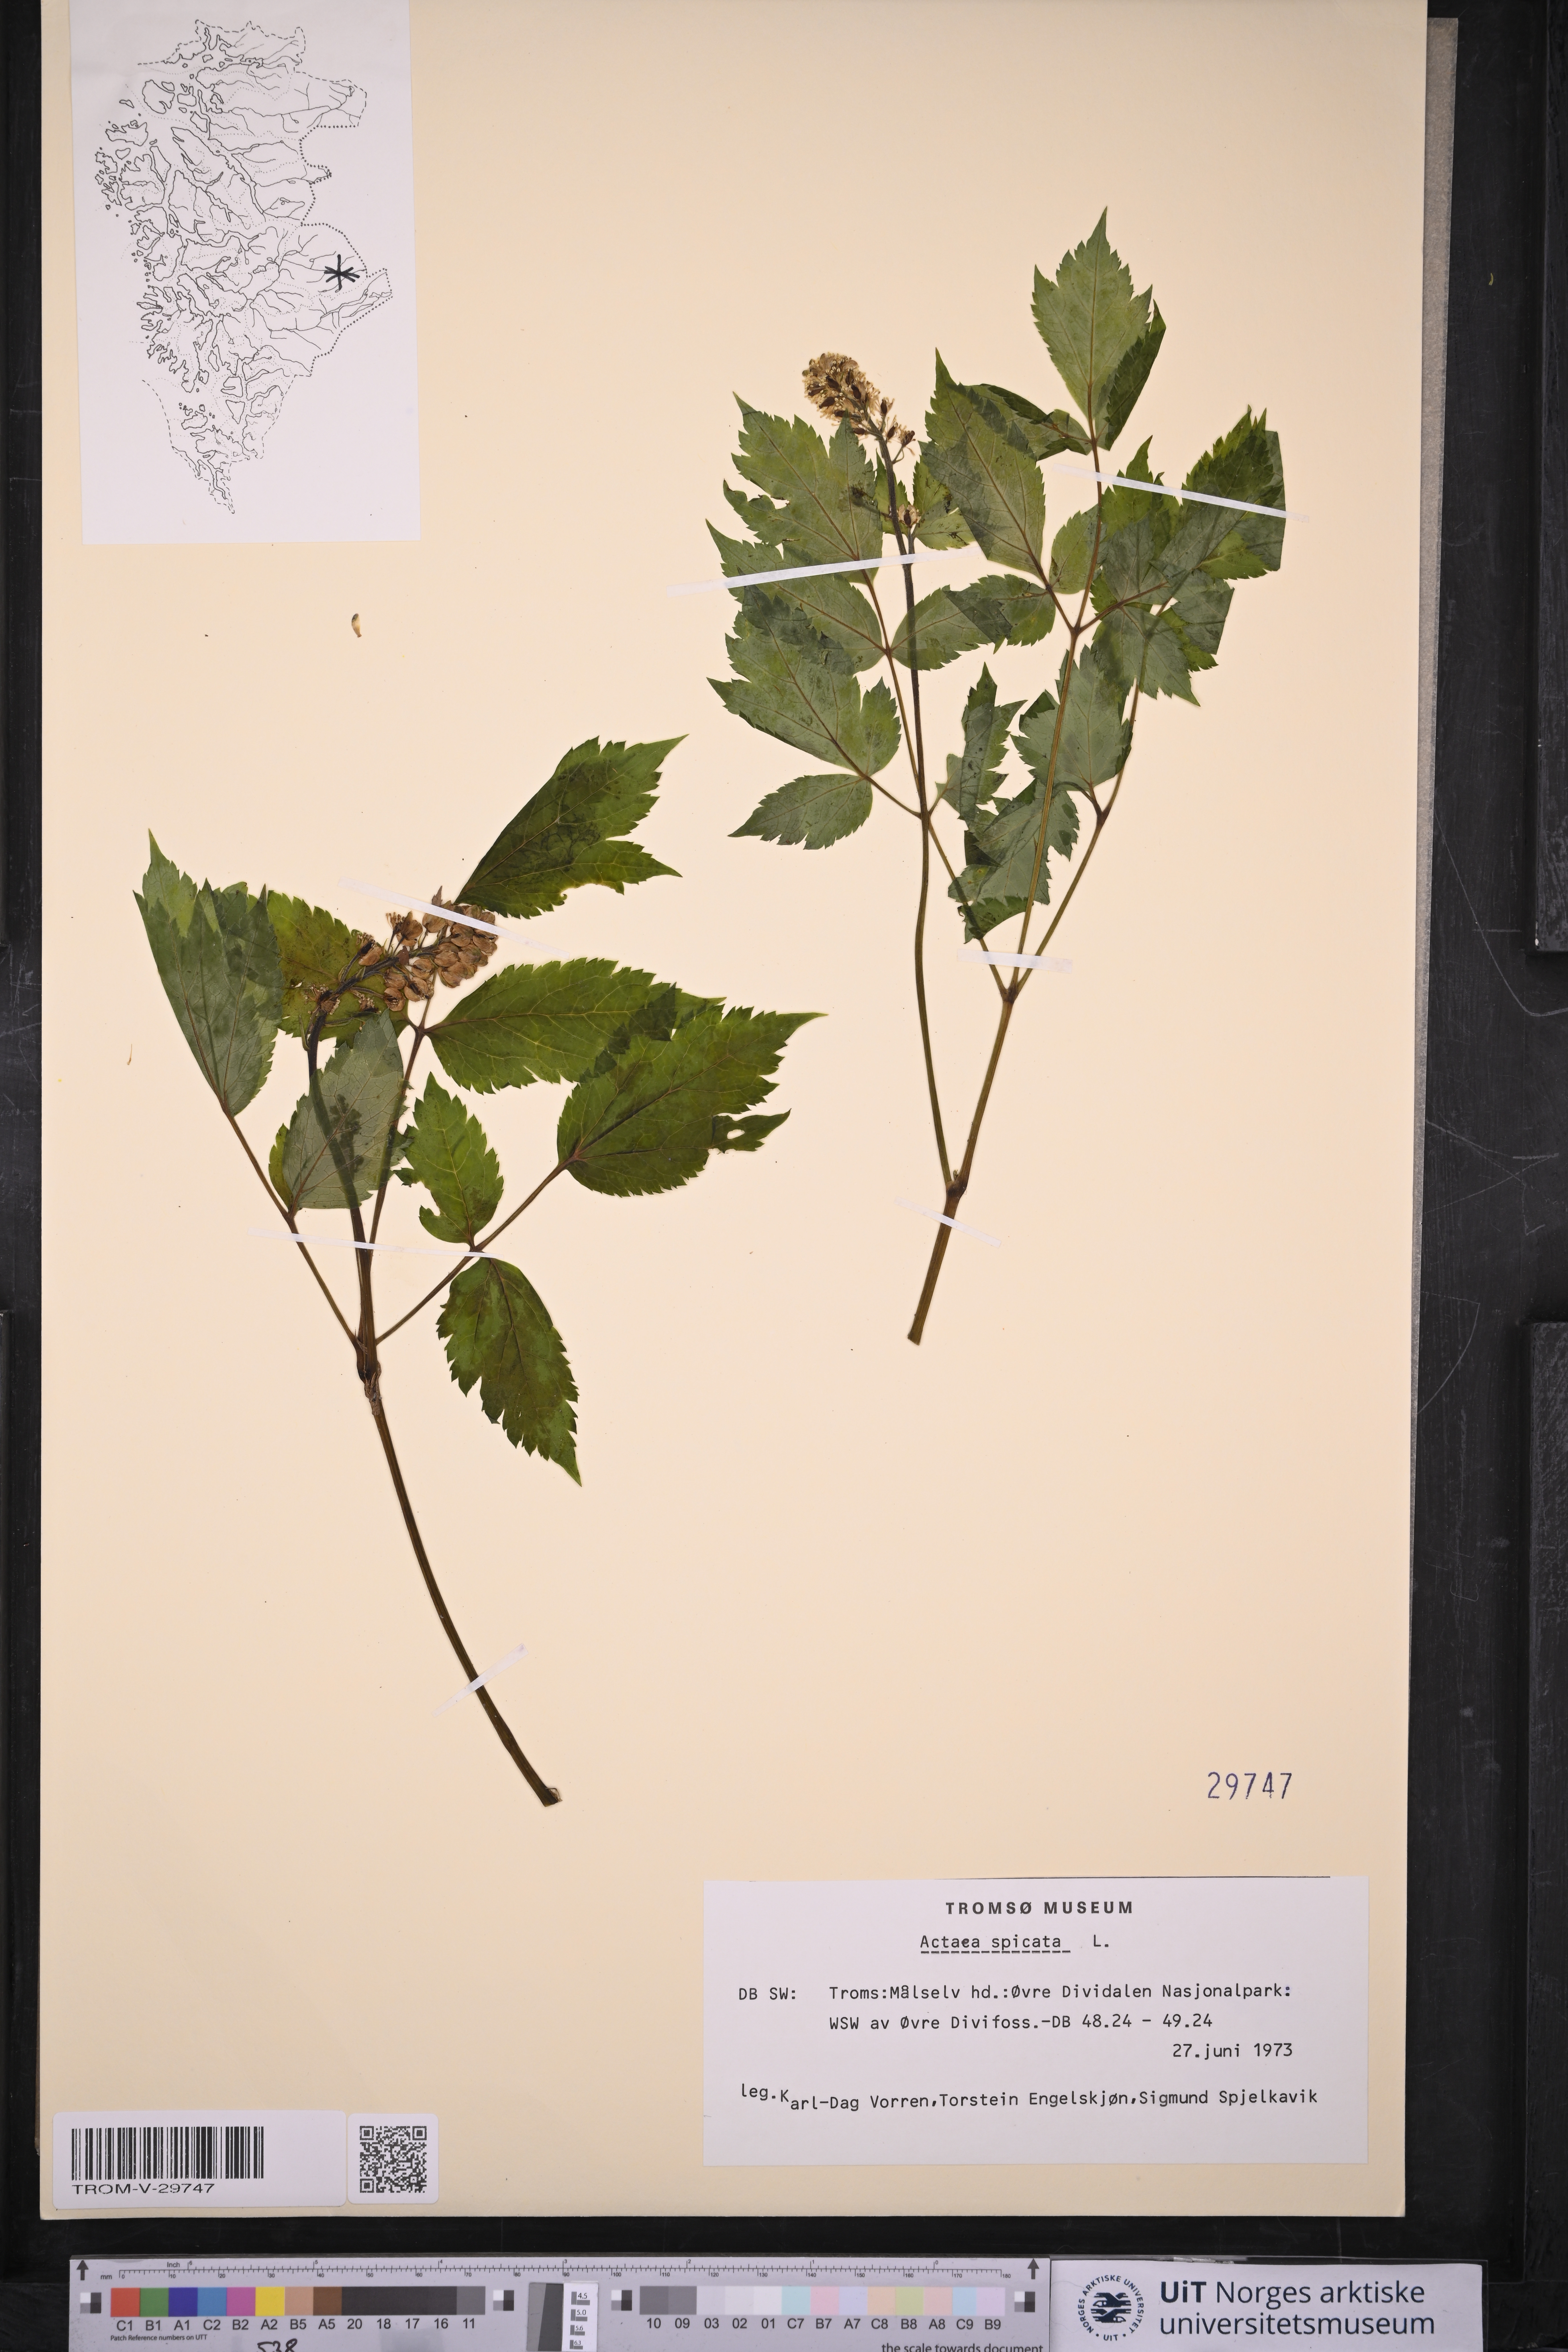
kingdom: Plantae
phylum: Tracheophyta
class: Magnoliopsida
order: Ranunculales
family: Ranunculaceae
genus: Actaea
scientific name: Actaea spicata
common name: Baneberry
